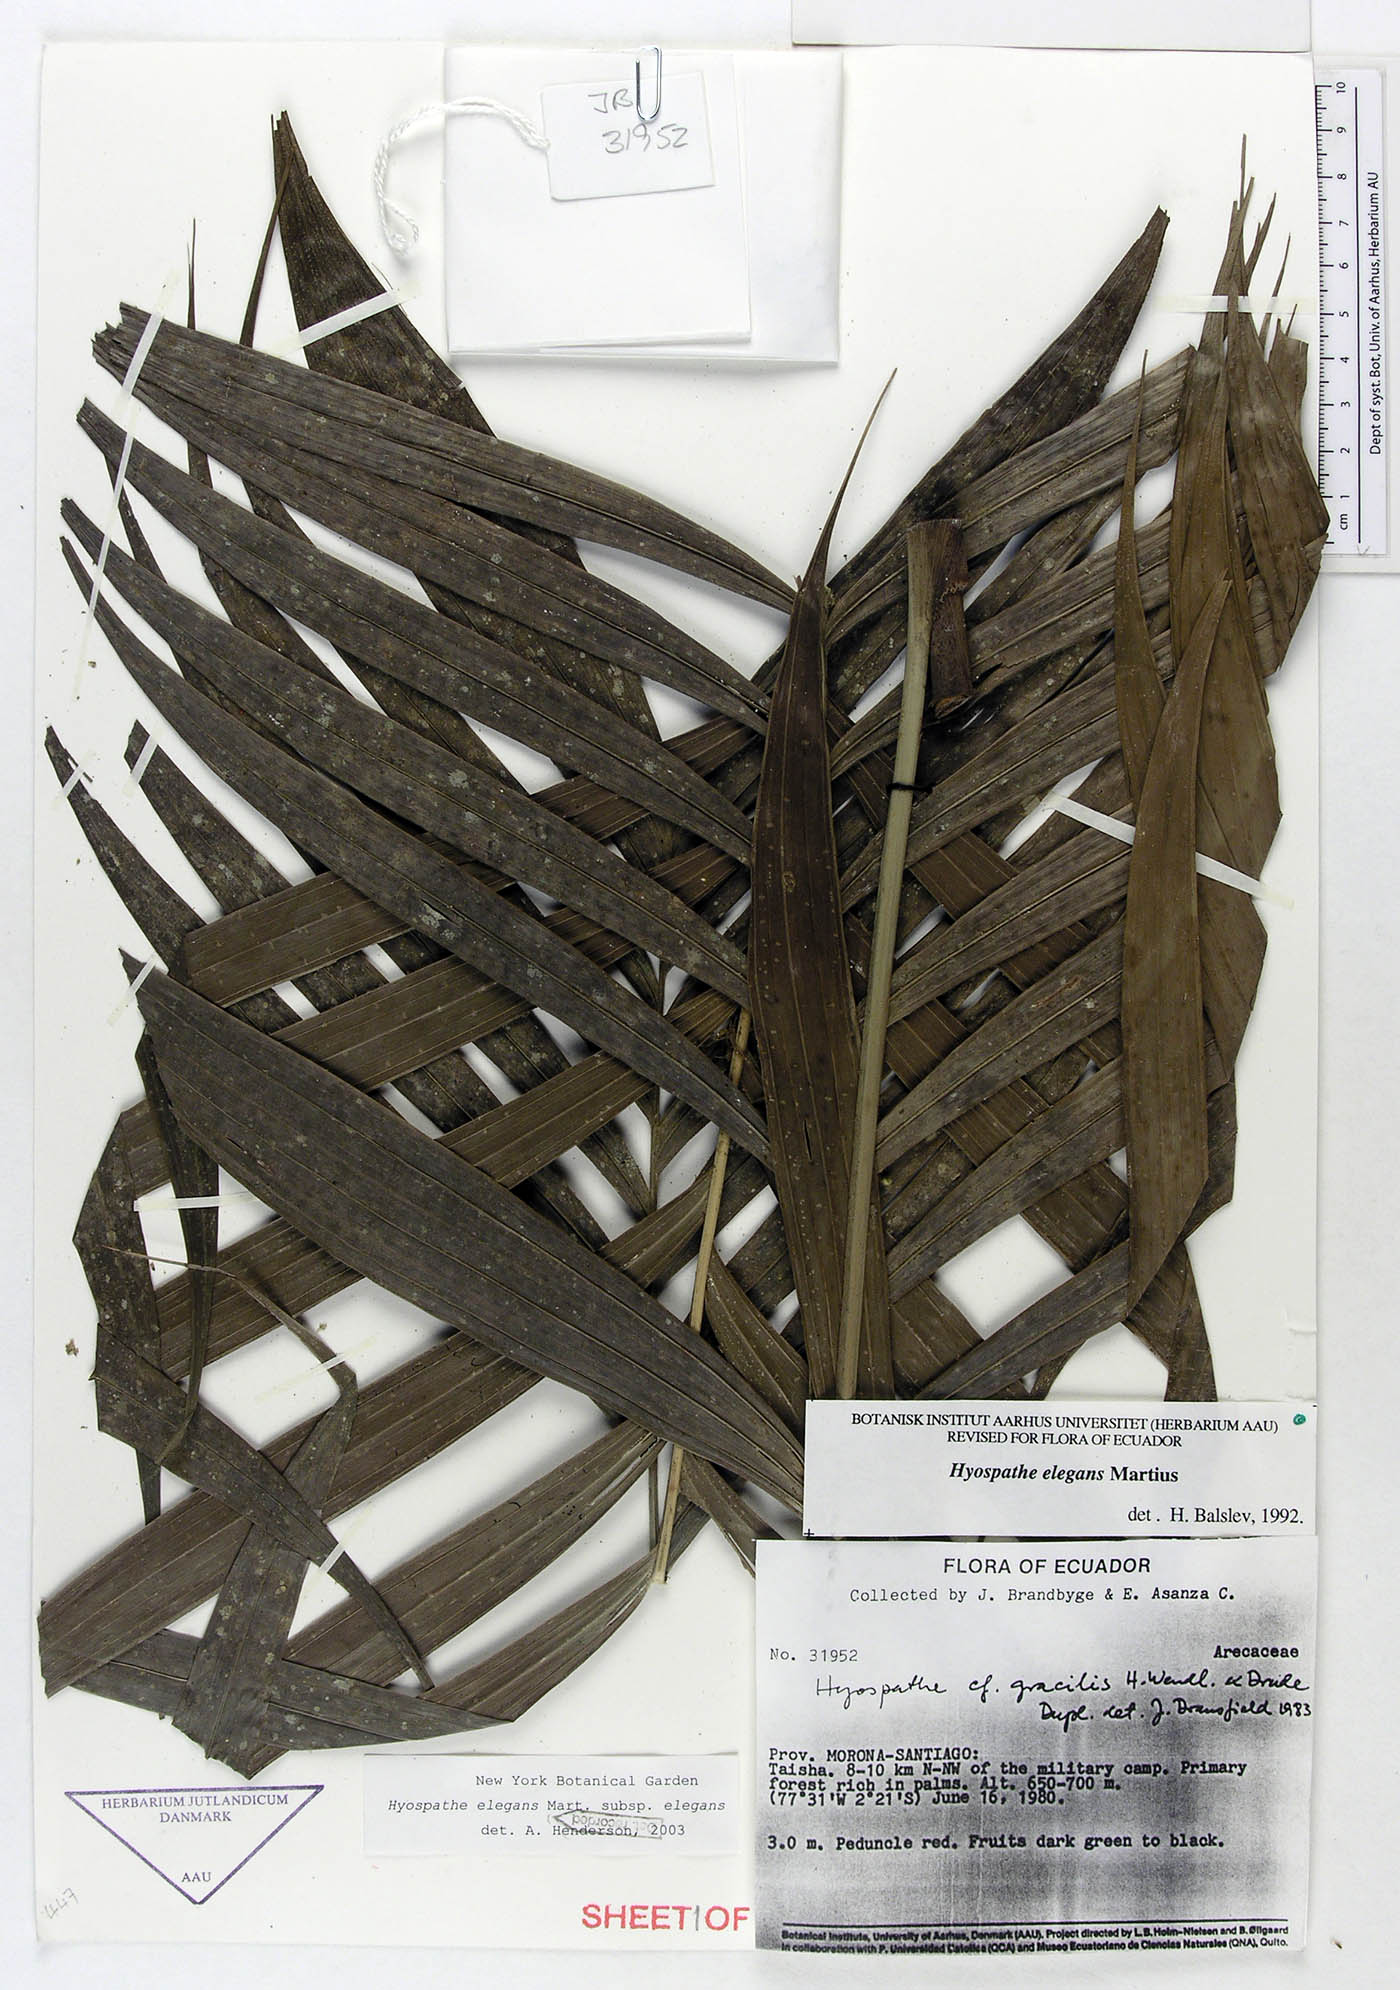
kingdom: Plantae
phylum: Tracheophyta
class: Liliopsida
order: Arecales
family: Arecaceae
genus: Hyospathe
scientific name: Hyospathe elegans
